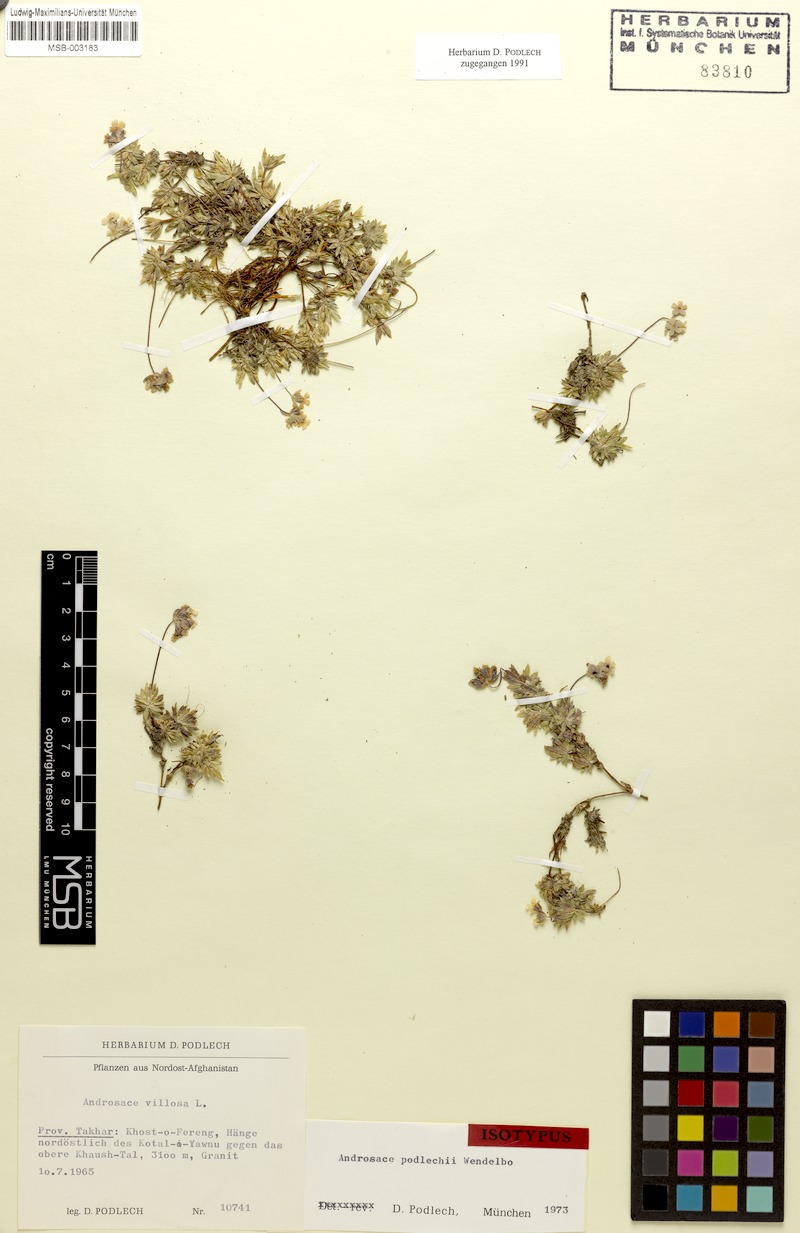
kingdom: Plantae
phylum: Tracheophyta
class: Magnoliopsida
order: Ericales
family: Primulaceae
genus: Androsace
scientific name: Androsace podlechii
